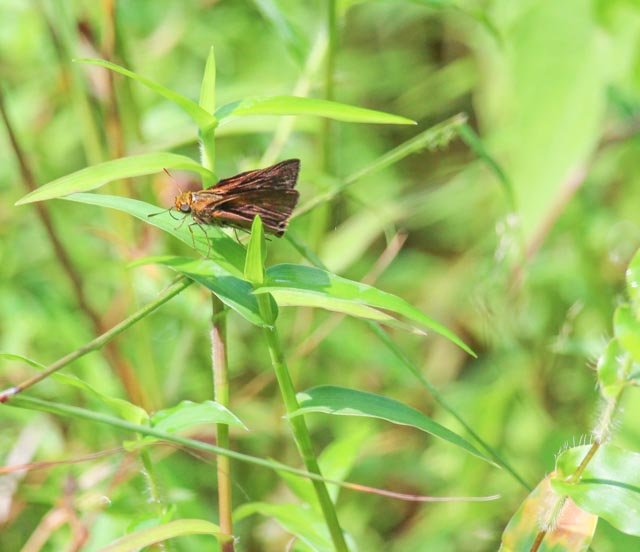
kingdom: Animalia
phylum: Arthropoda
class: Insecta
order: Lepidoptera
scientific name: Lepidoptera
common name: Butterflies
